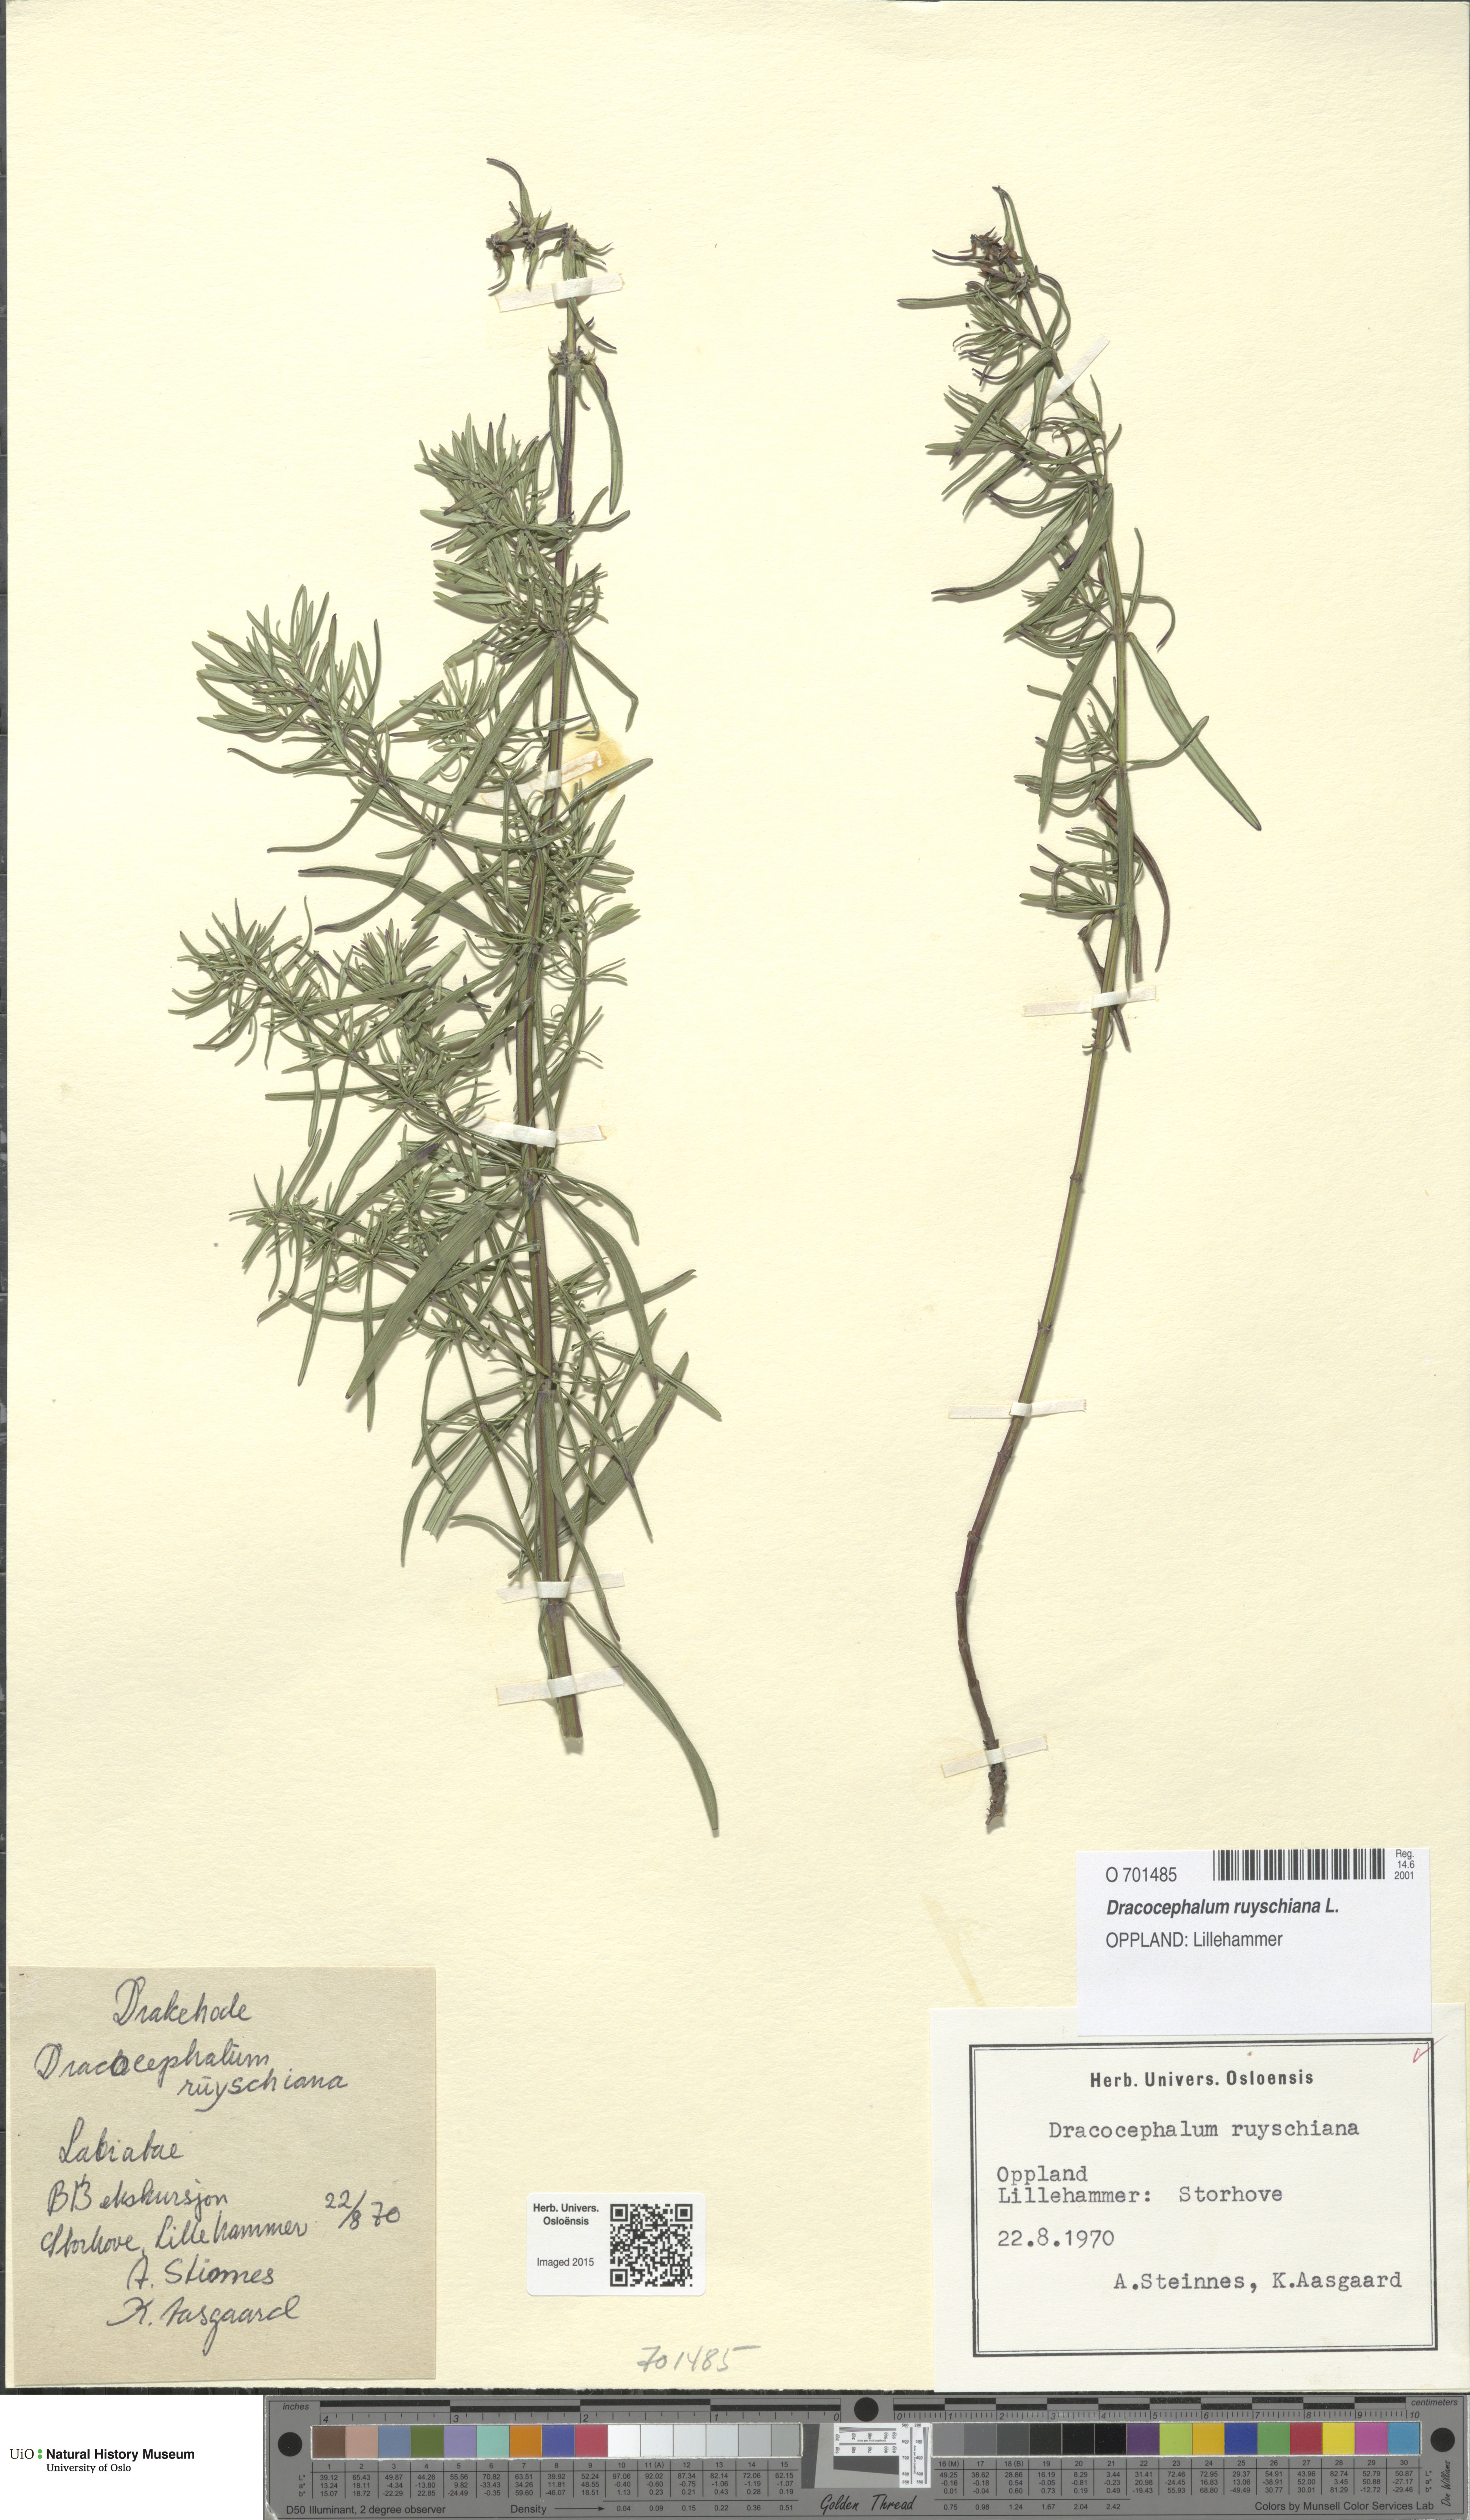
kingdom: Plantae
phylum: Tracheophyta
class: Magnoliopsida
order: Lamiales
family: Lamiaceae
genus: Dracocephalum
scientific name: Dracocephalum ruyschiana
